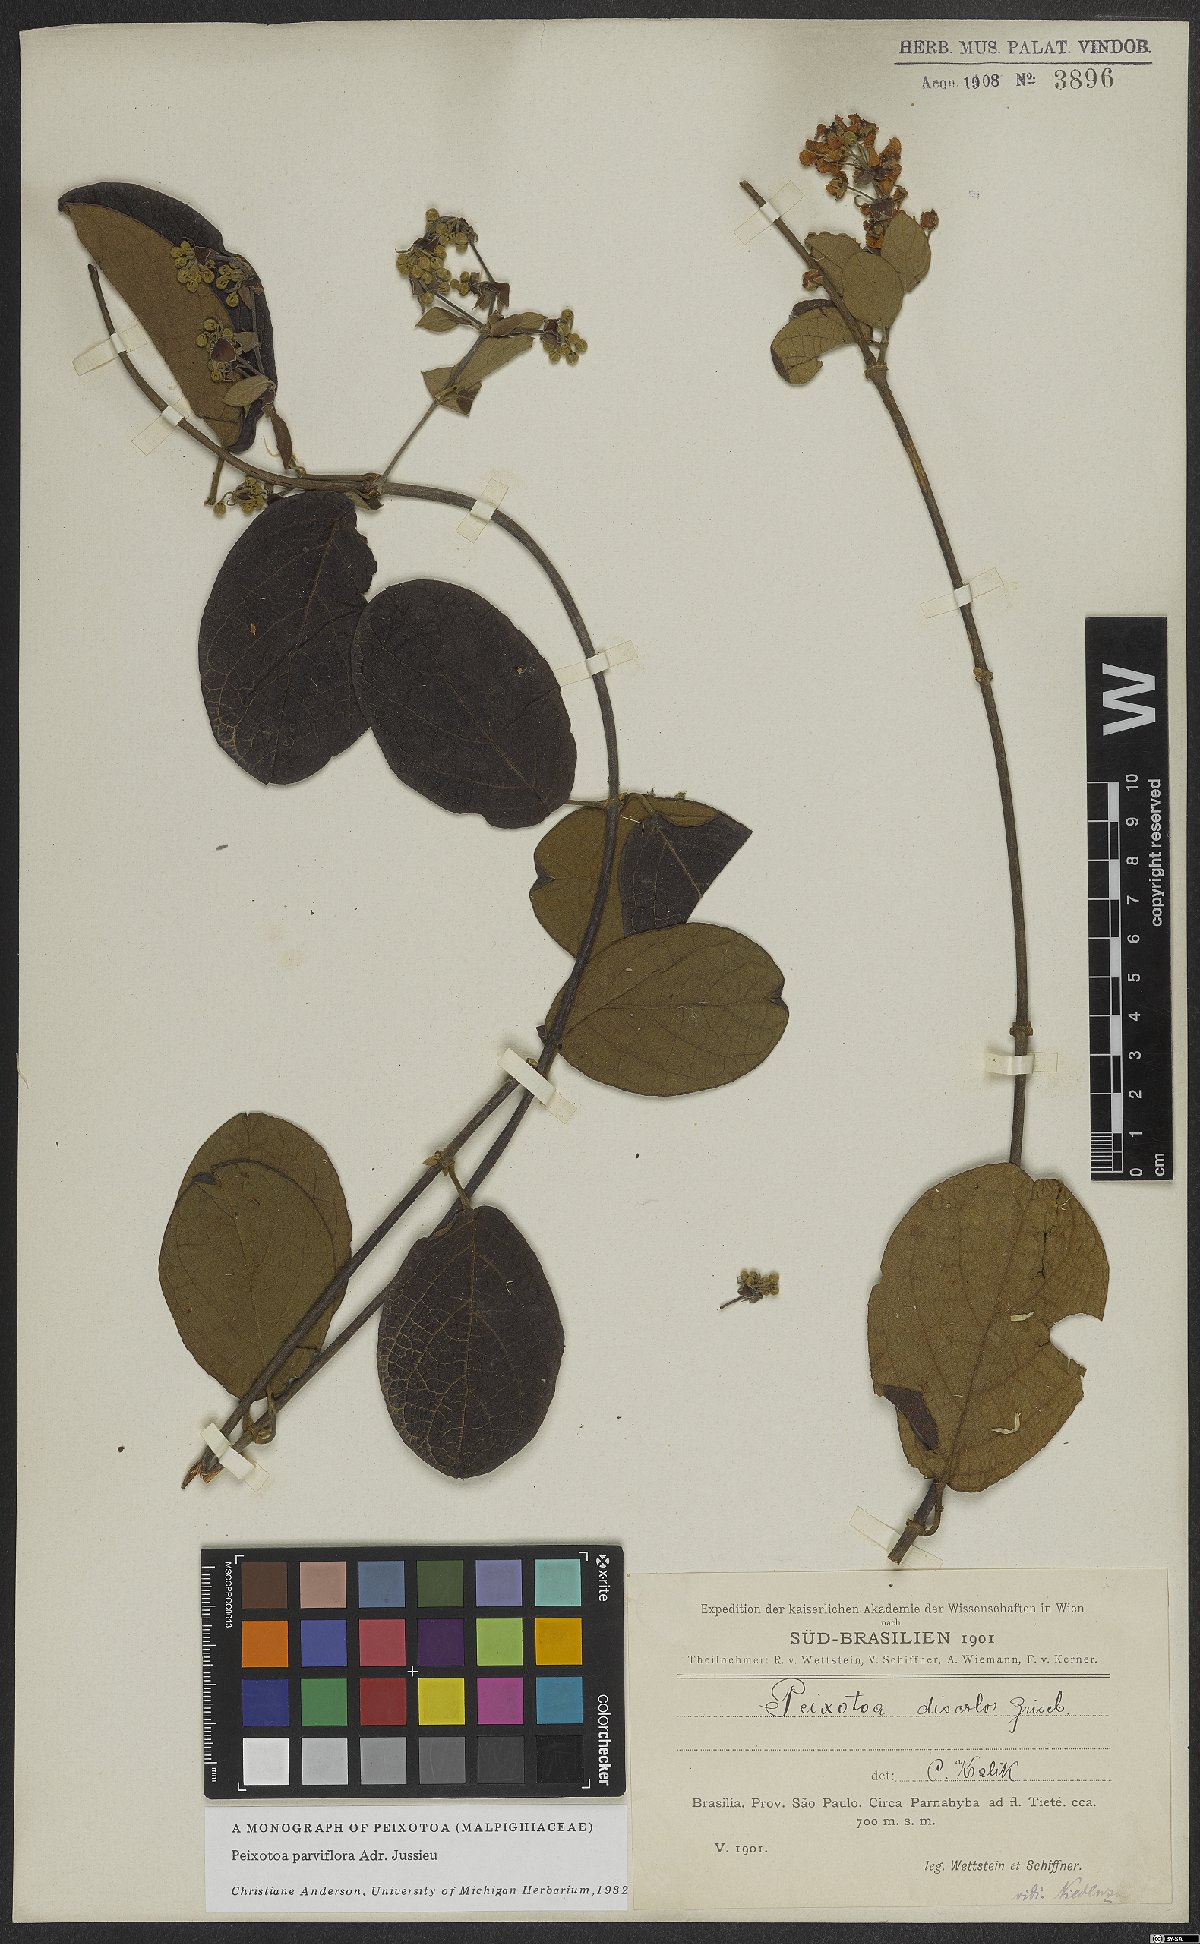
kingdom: Plantae
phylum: Tracheophyta
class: Magnoliopsida
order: Malpighiales
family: Malpighiaceae
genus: Peixotoa
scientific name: Peixotoa parviflora
